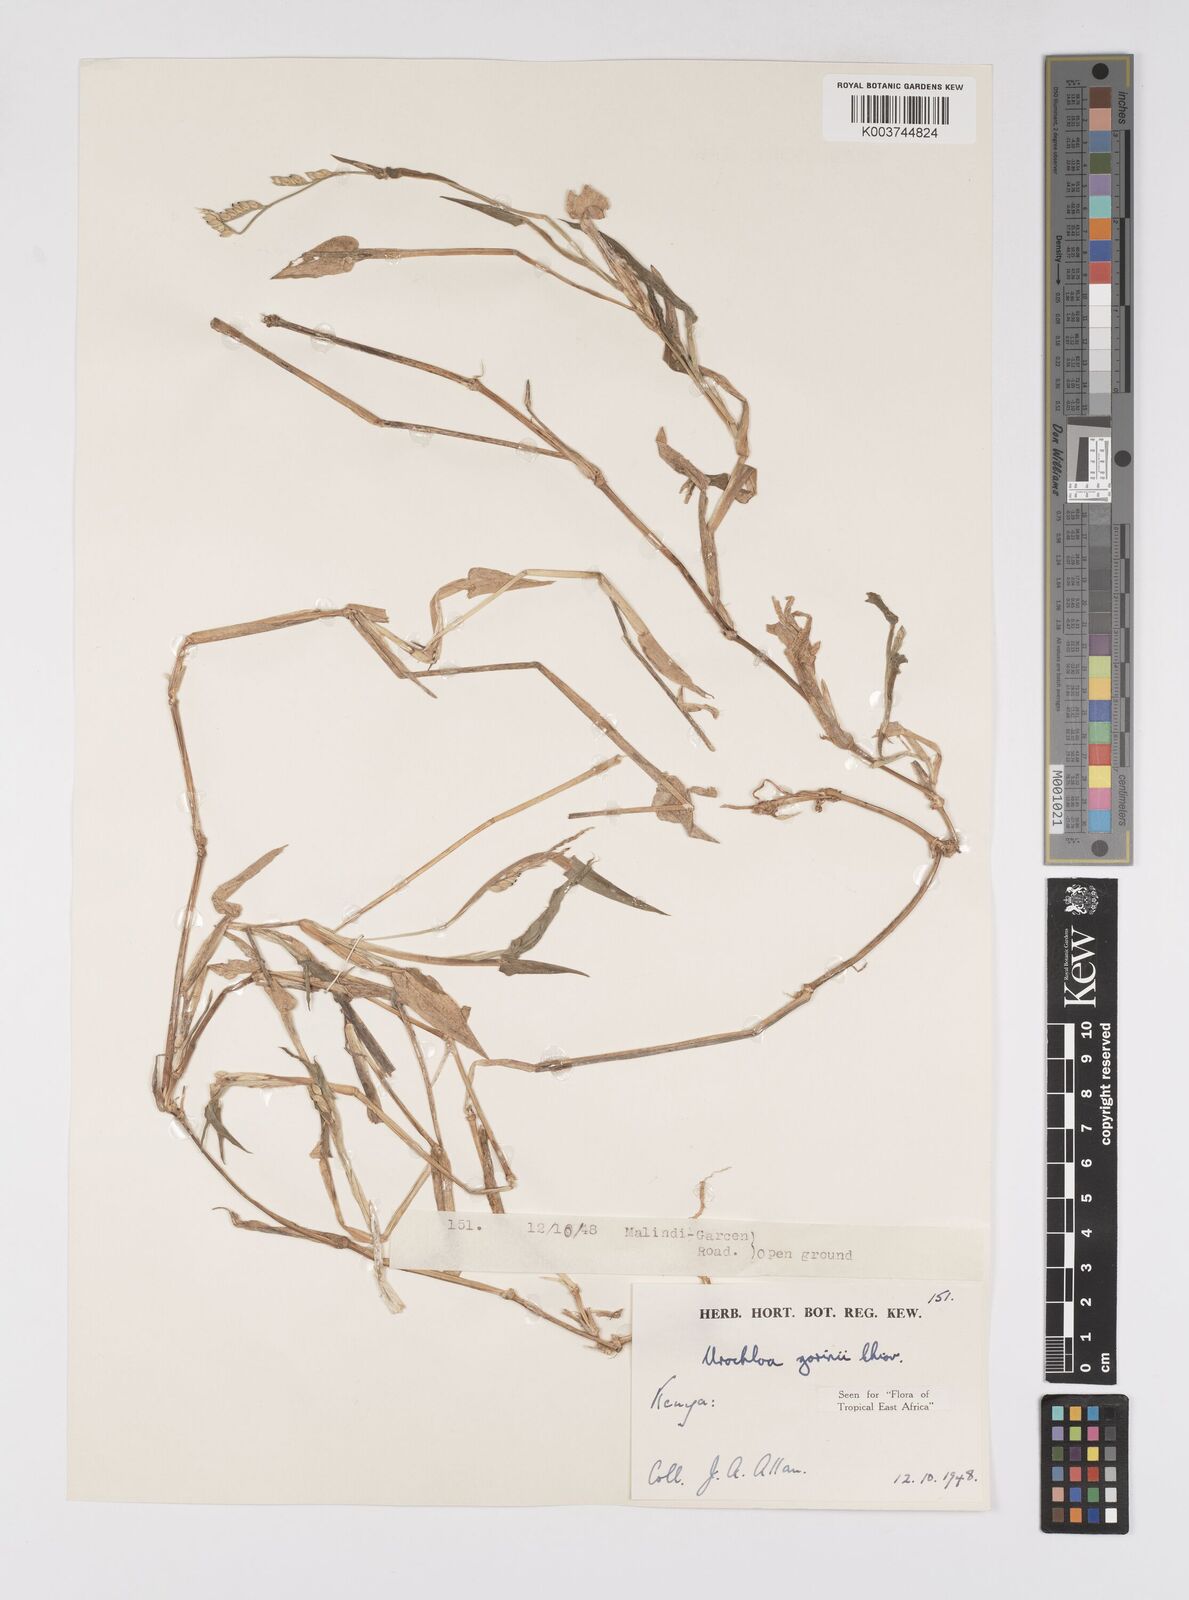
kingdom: Plantae
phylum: Tracheophyta
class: Liliopsida
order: Poales
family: Poaceae
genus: Urochloa
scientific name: Urochloa rudis
